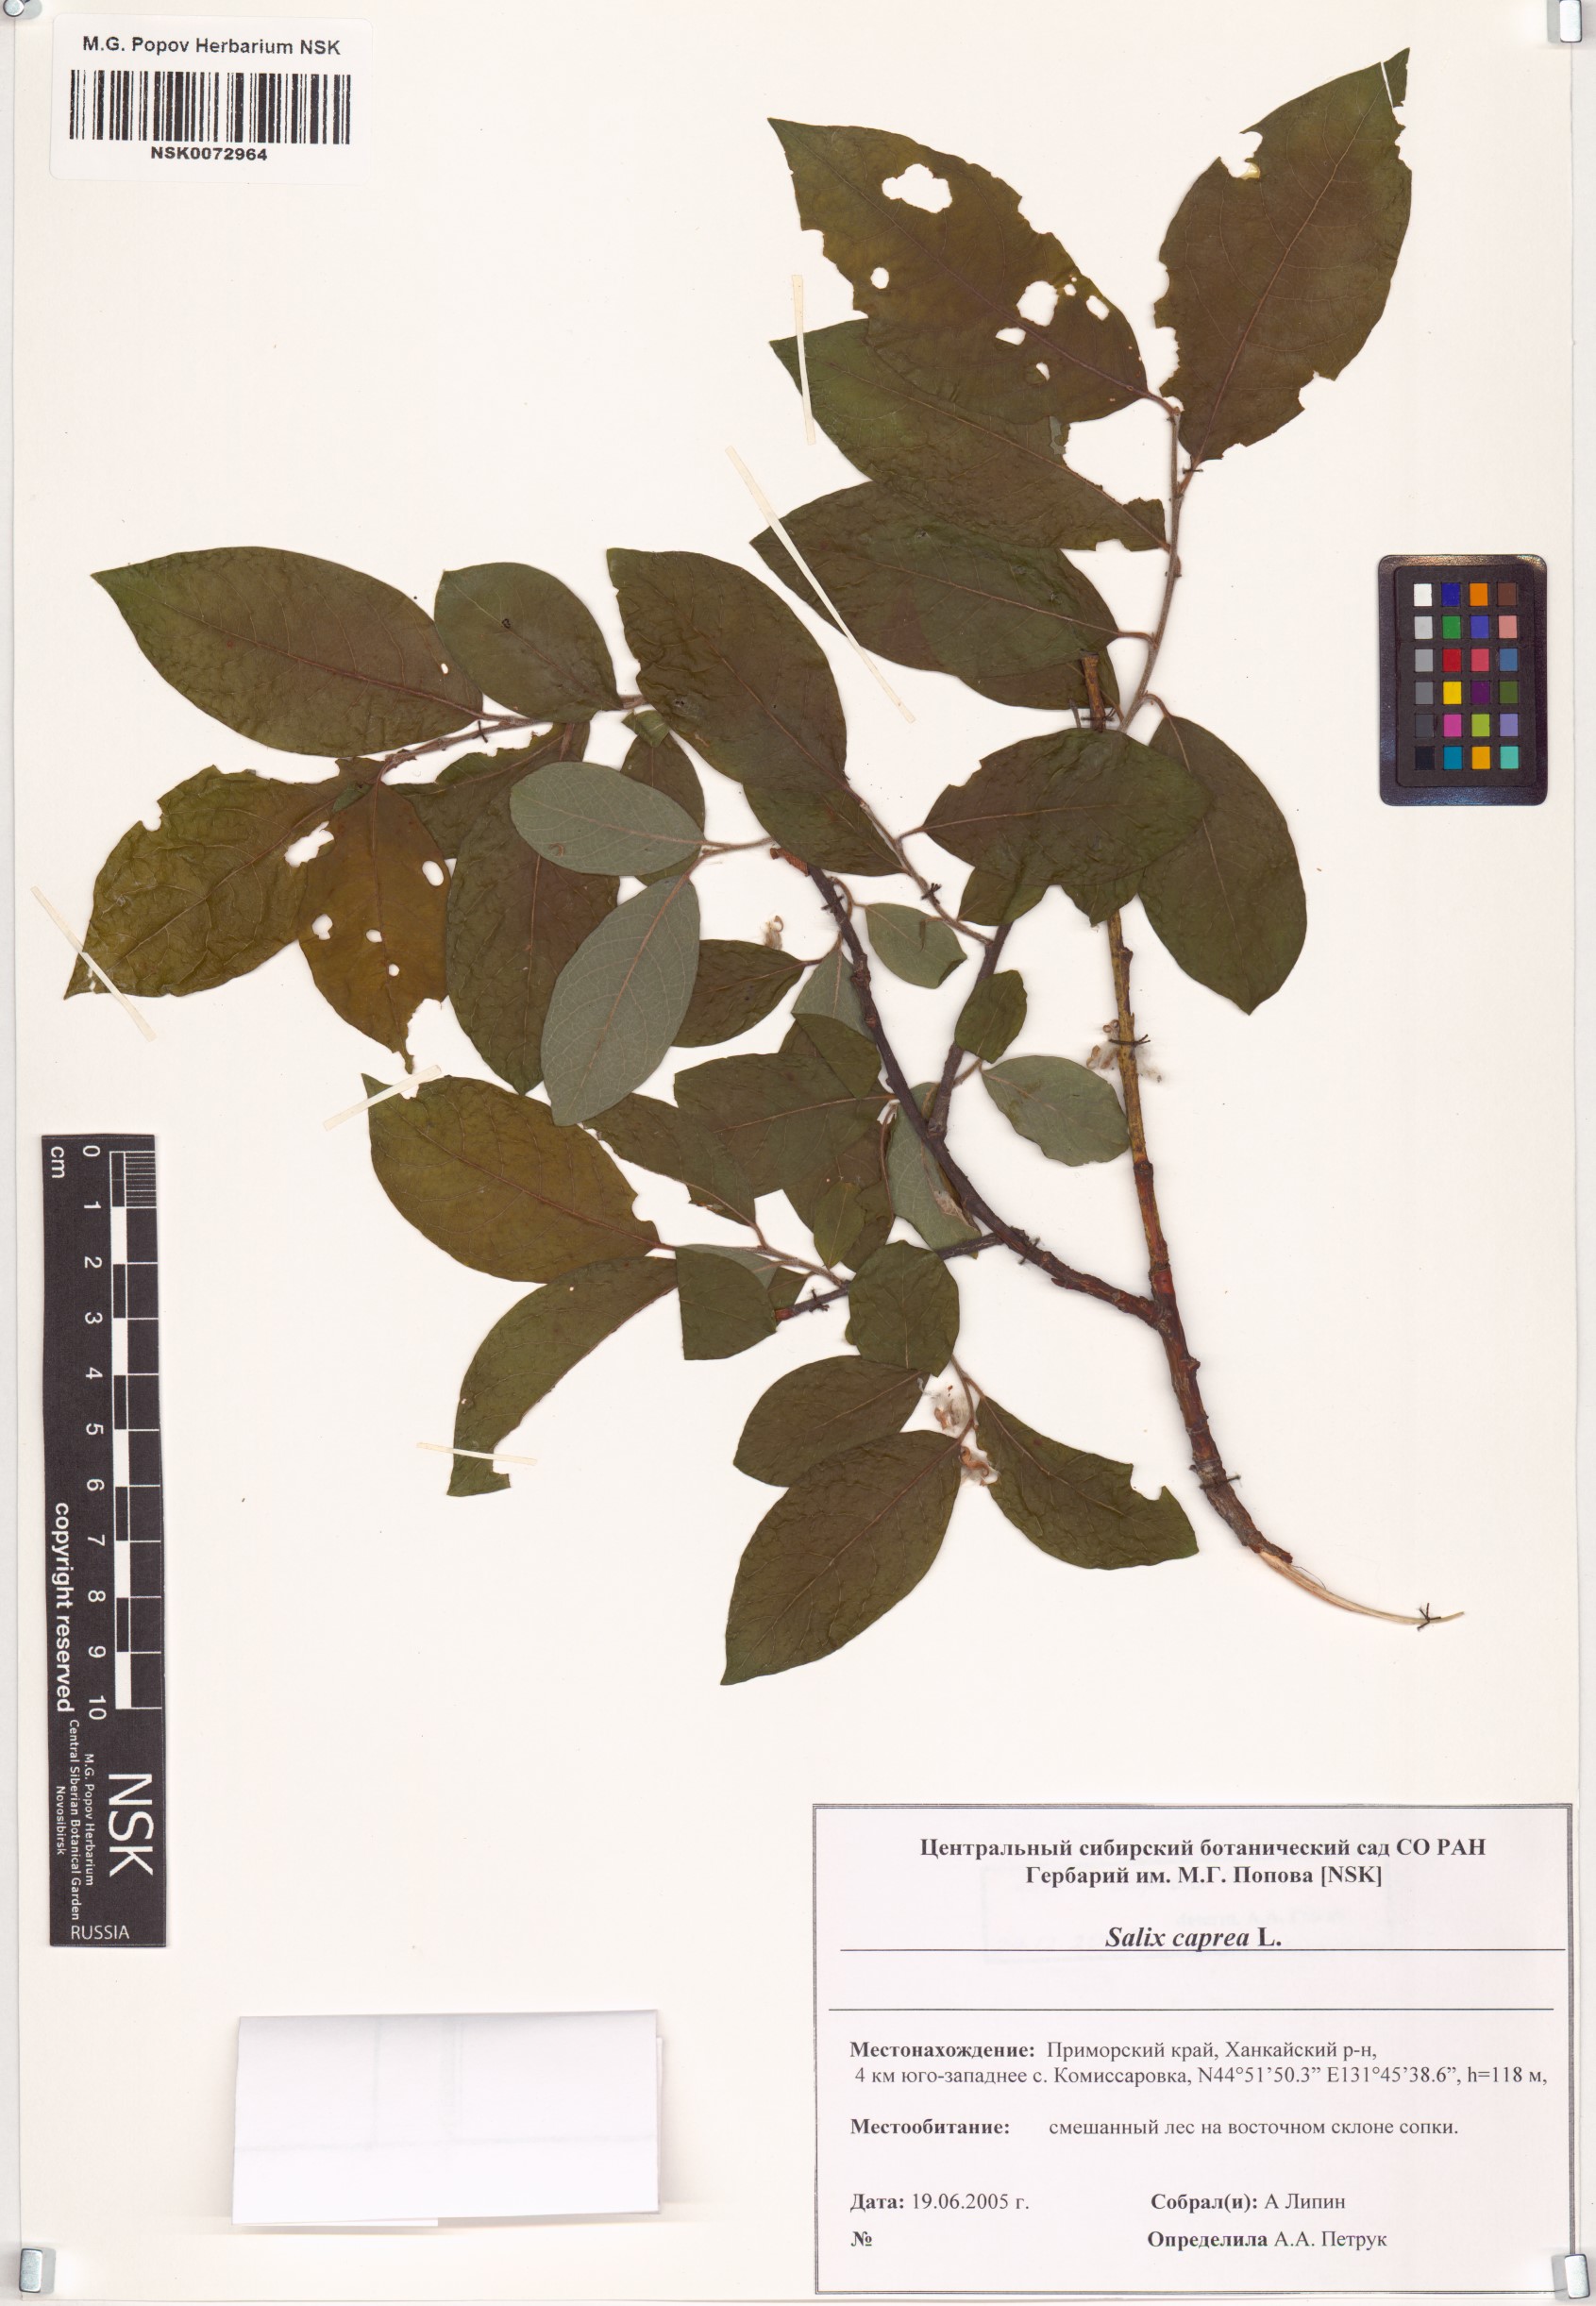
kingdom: Plantae
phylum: Tracheophyta
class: Magnoliopsida
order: Malpighiales
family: Salicaceae
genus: Salix
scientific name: Salix caprea
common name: Goat willow
